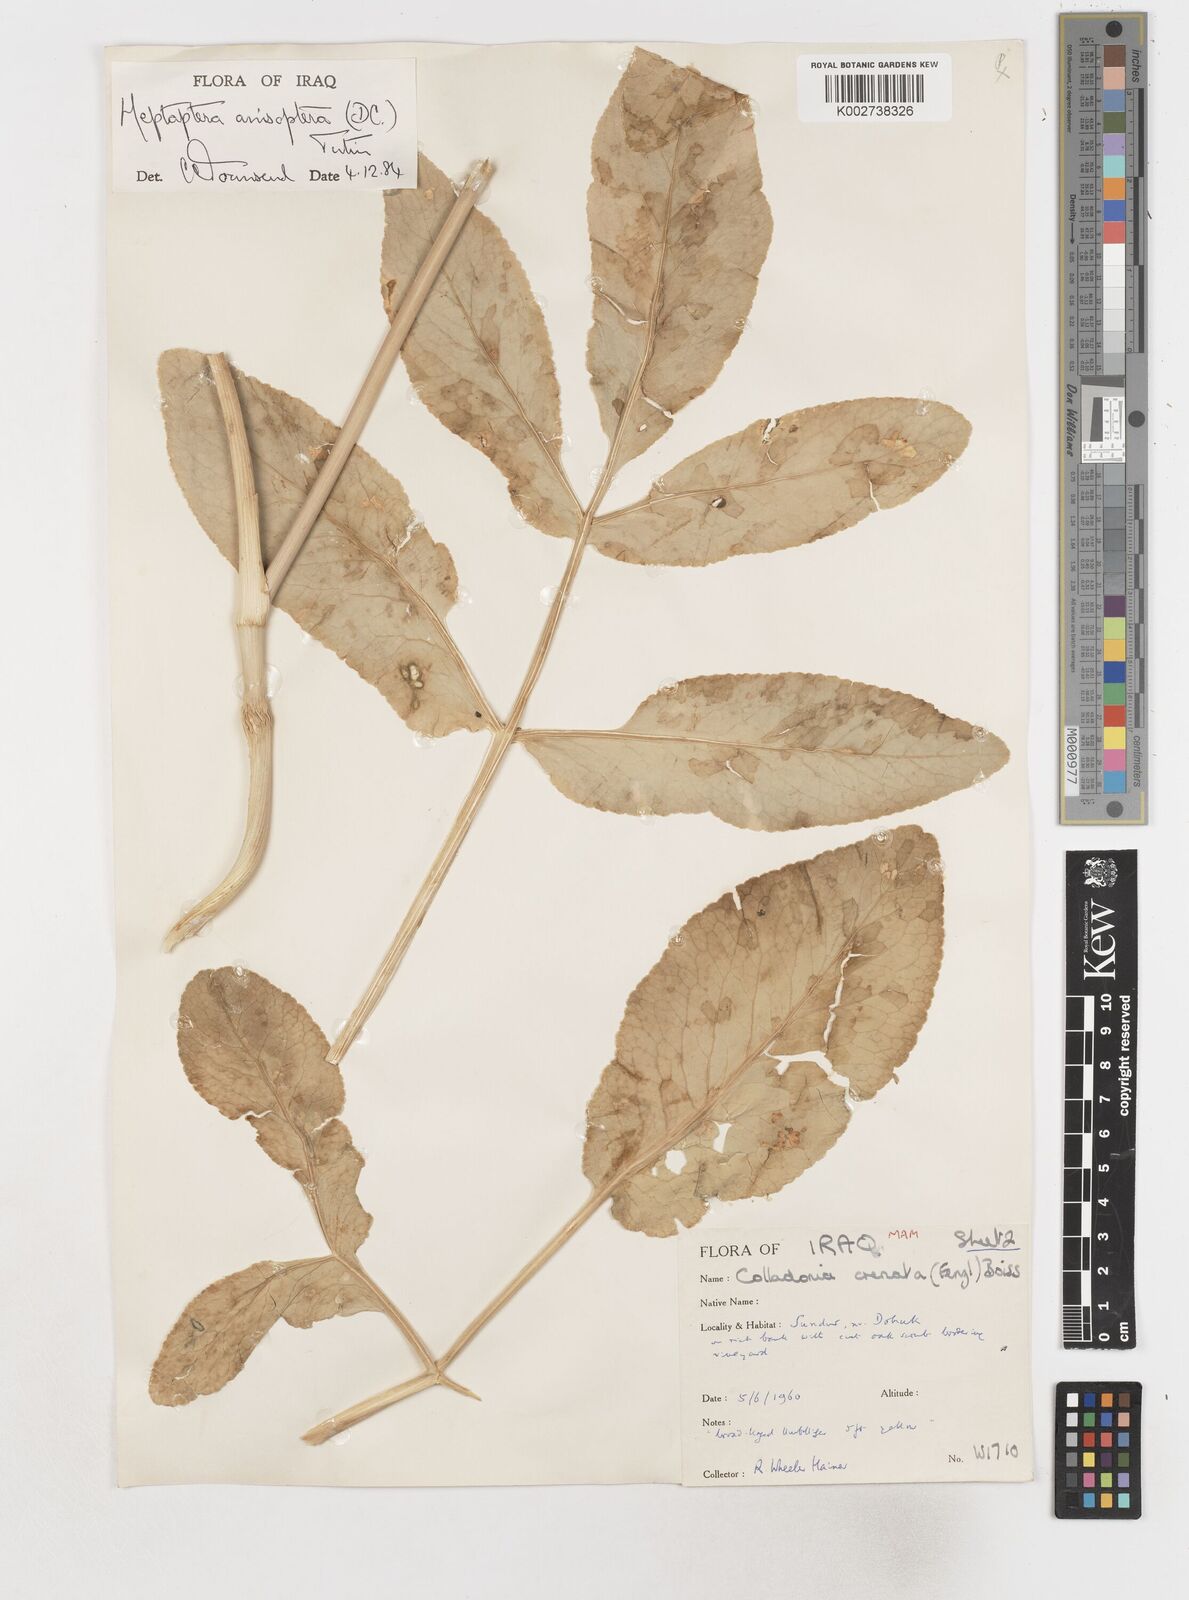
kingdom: Plantae
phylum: Tracheophyta
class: Magnoliopsida
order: Apiales
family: Apiaceae
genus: Heptaptera
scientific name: Heptaptera
